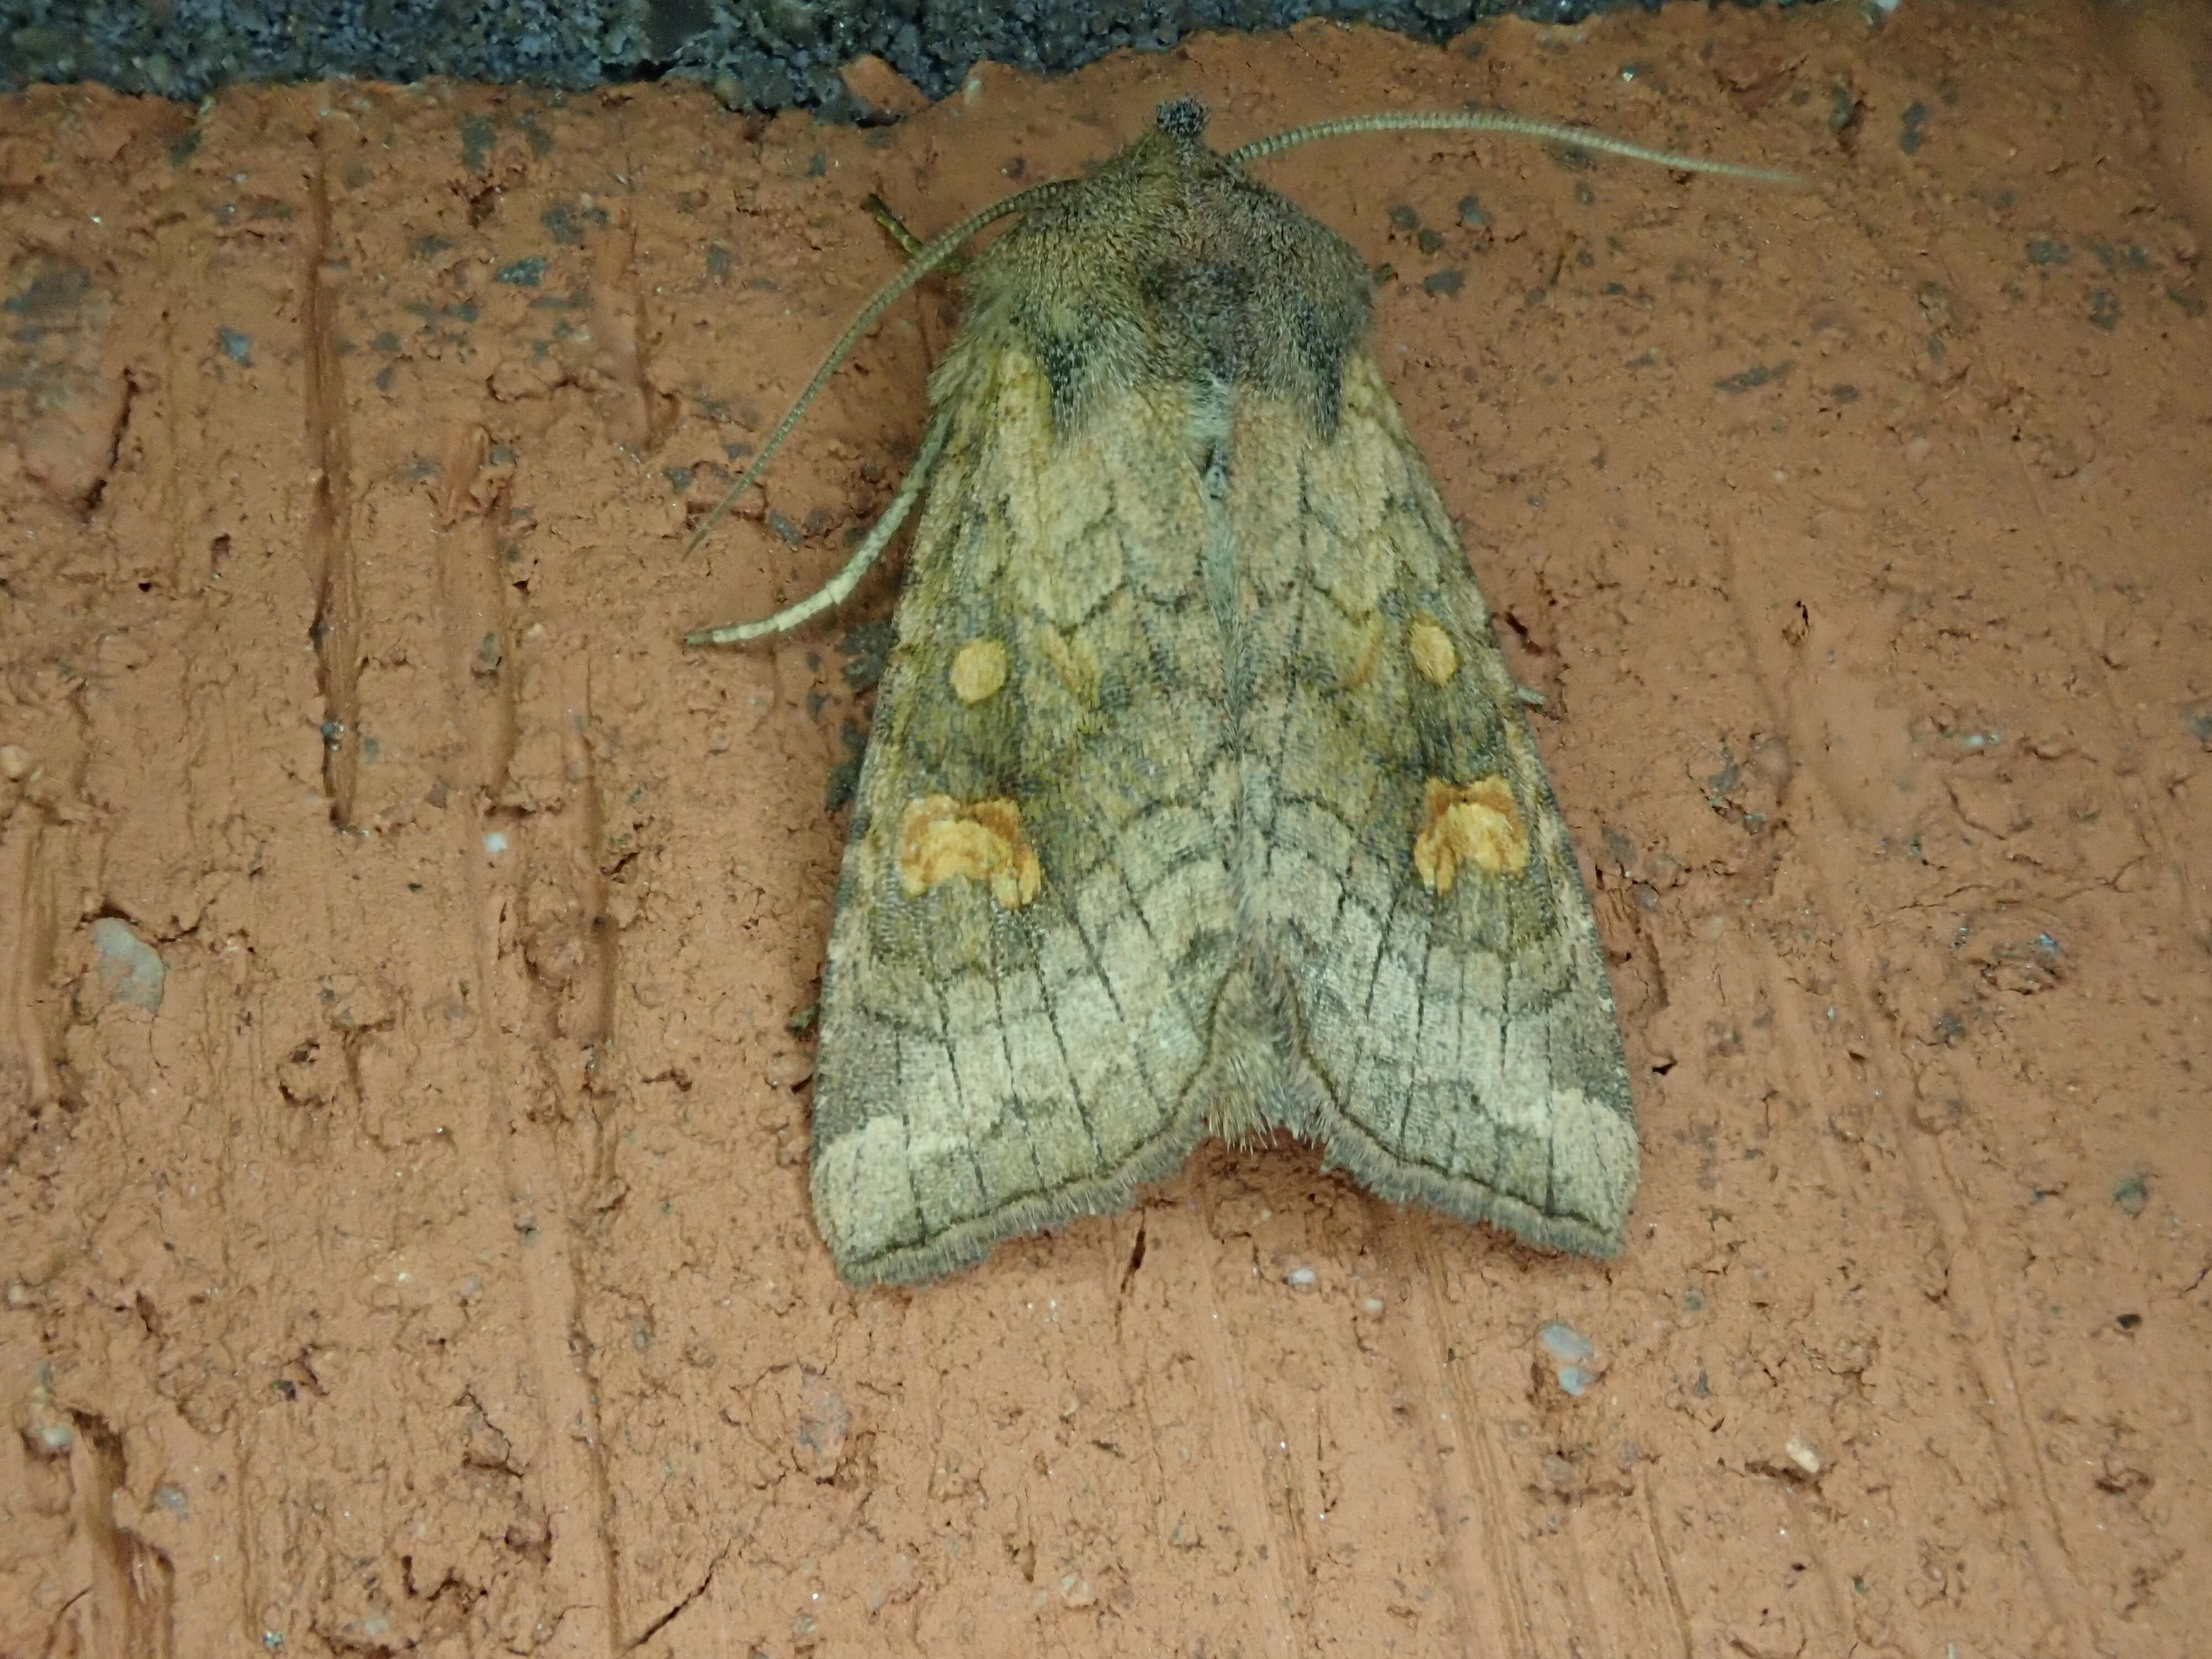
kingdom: Animalia
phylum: Arthropoda
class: Insecta
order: Lepidoptera
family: Noctuidae
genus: Amphipoea
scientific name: Amphipoea fucosa
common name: Saltern ear
